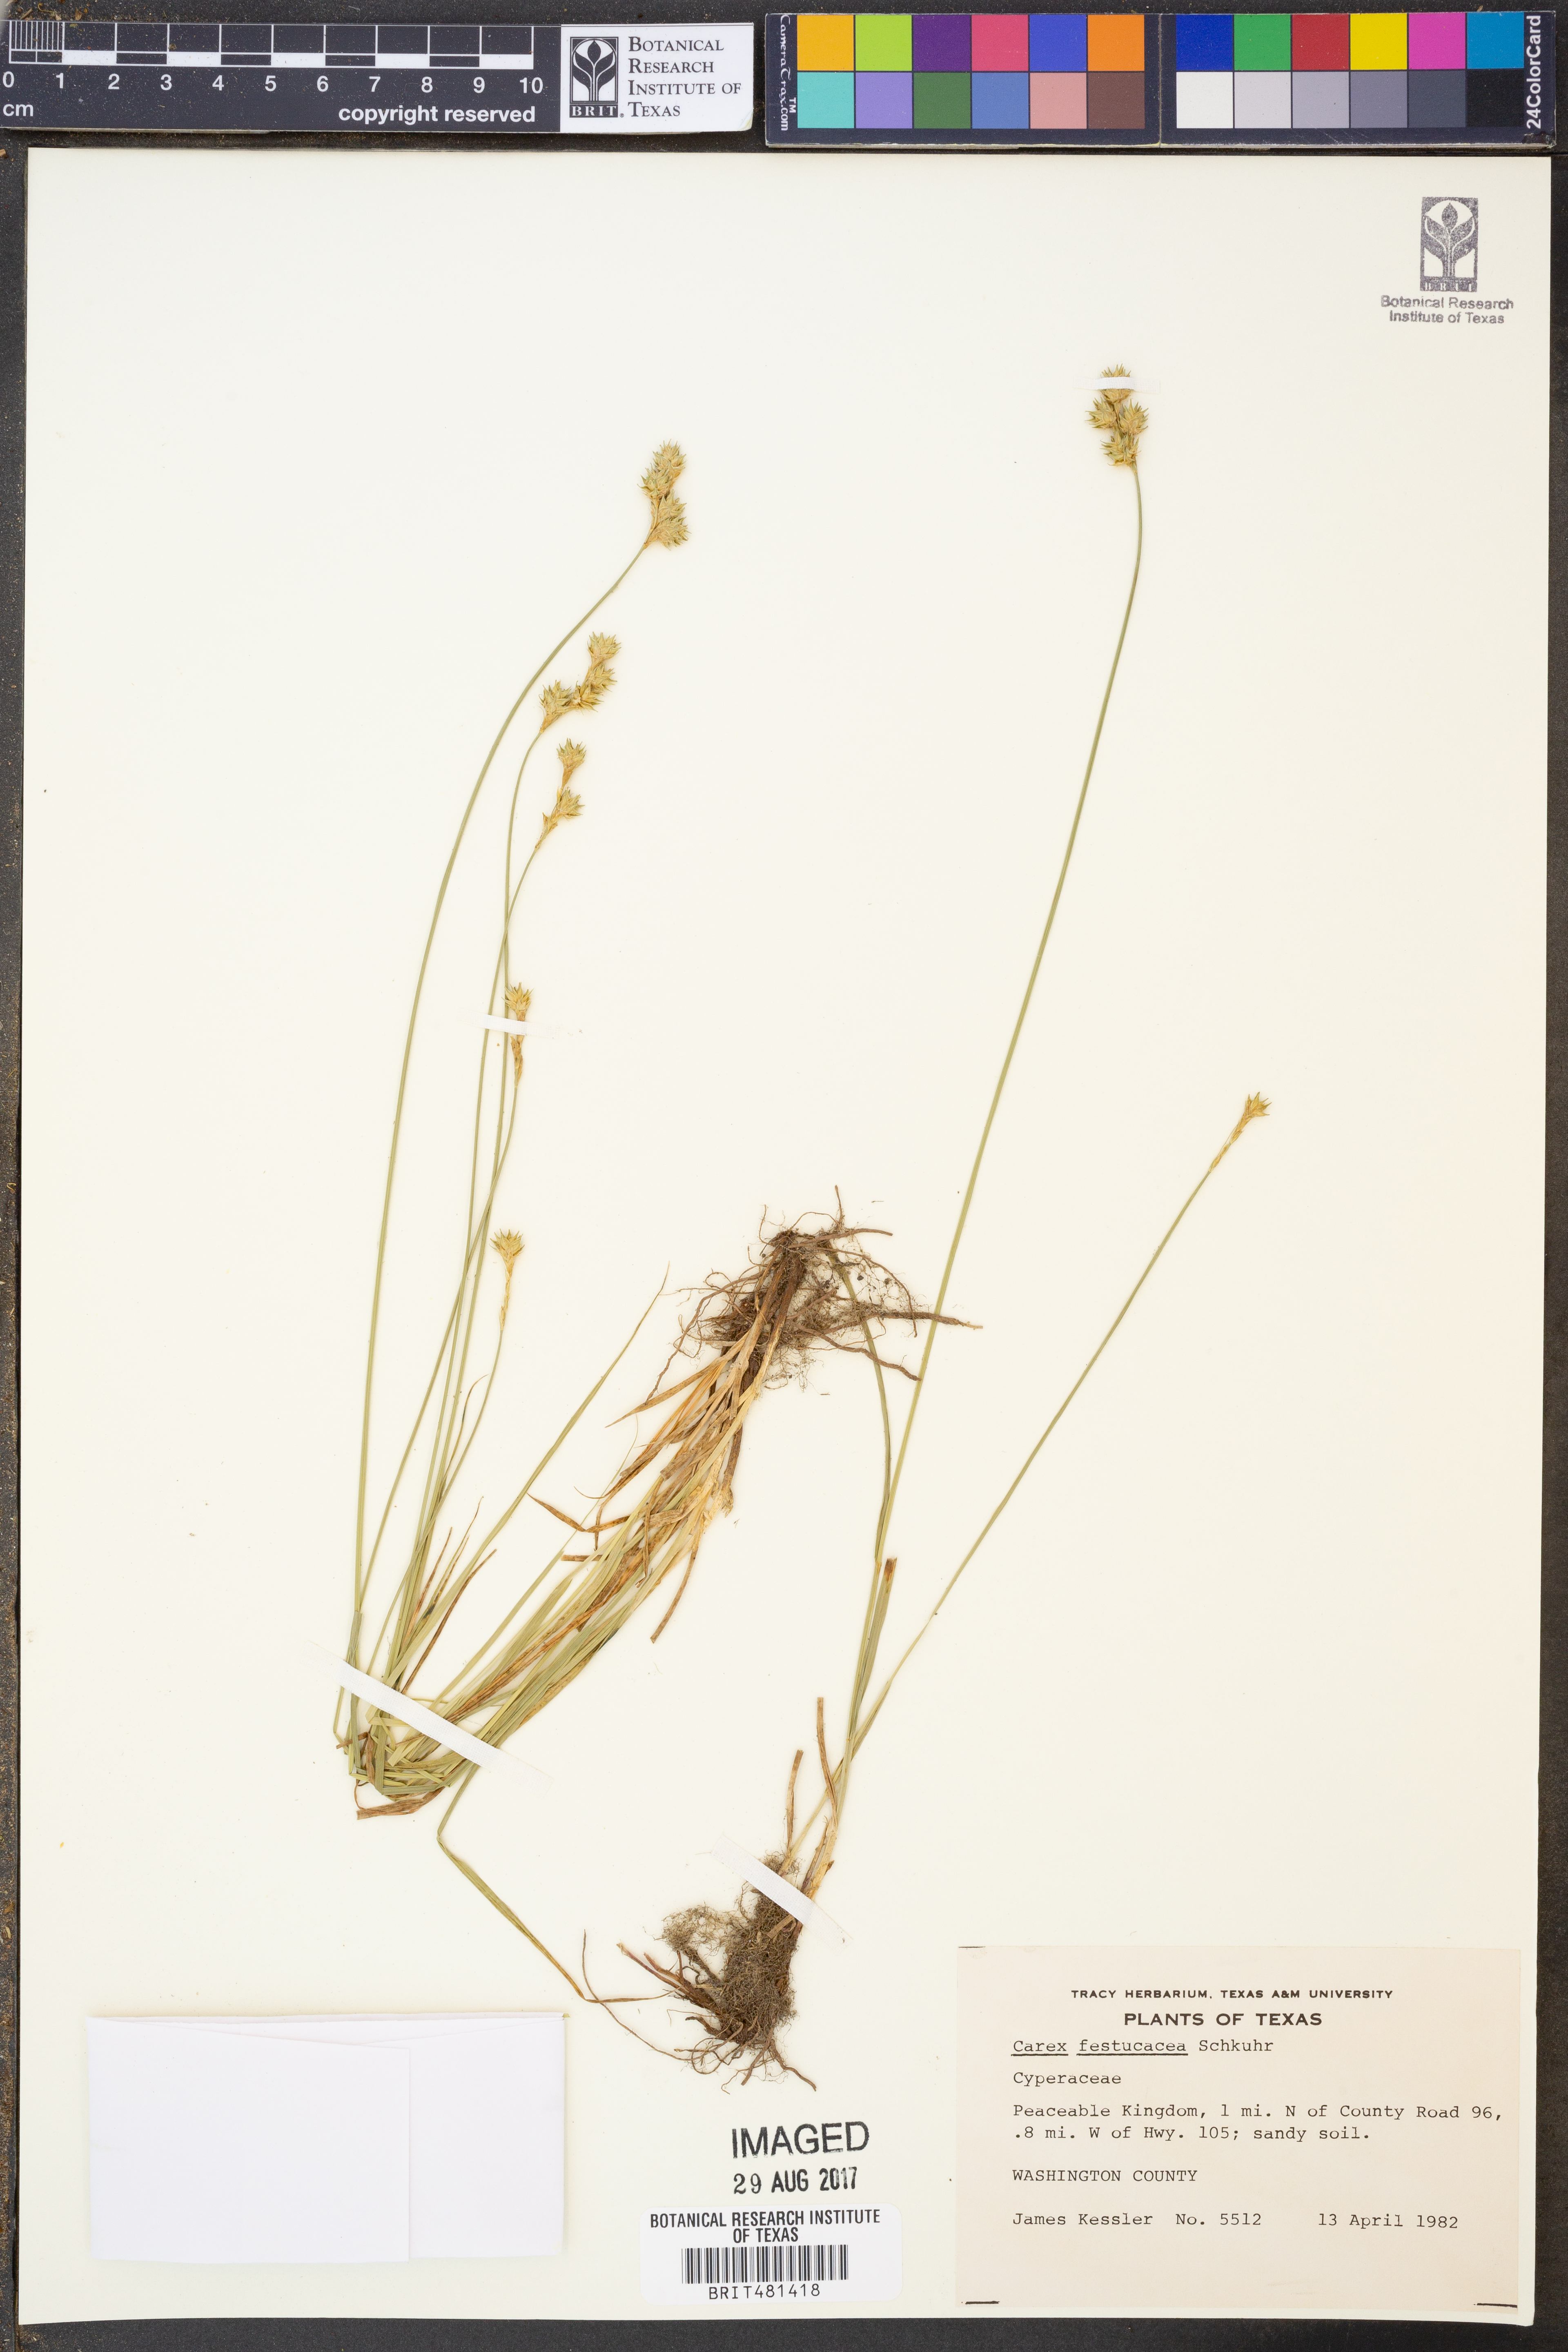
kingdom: Plantae
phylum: Tracheophyta
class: Liliopsida
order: Poales
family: Cyperaceae
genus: Carex
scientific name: Carex festucacea
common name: Fescue oval sedge
